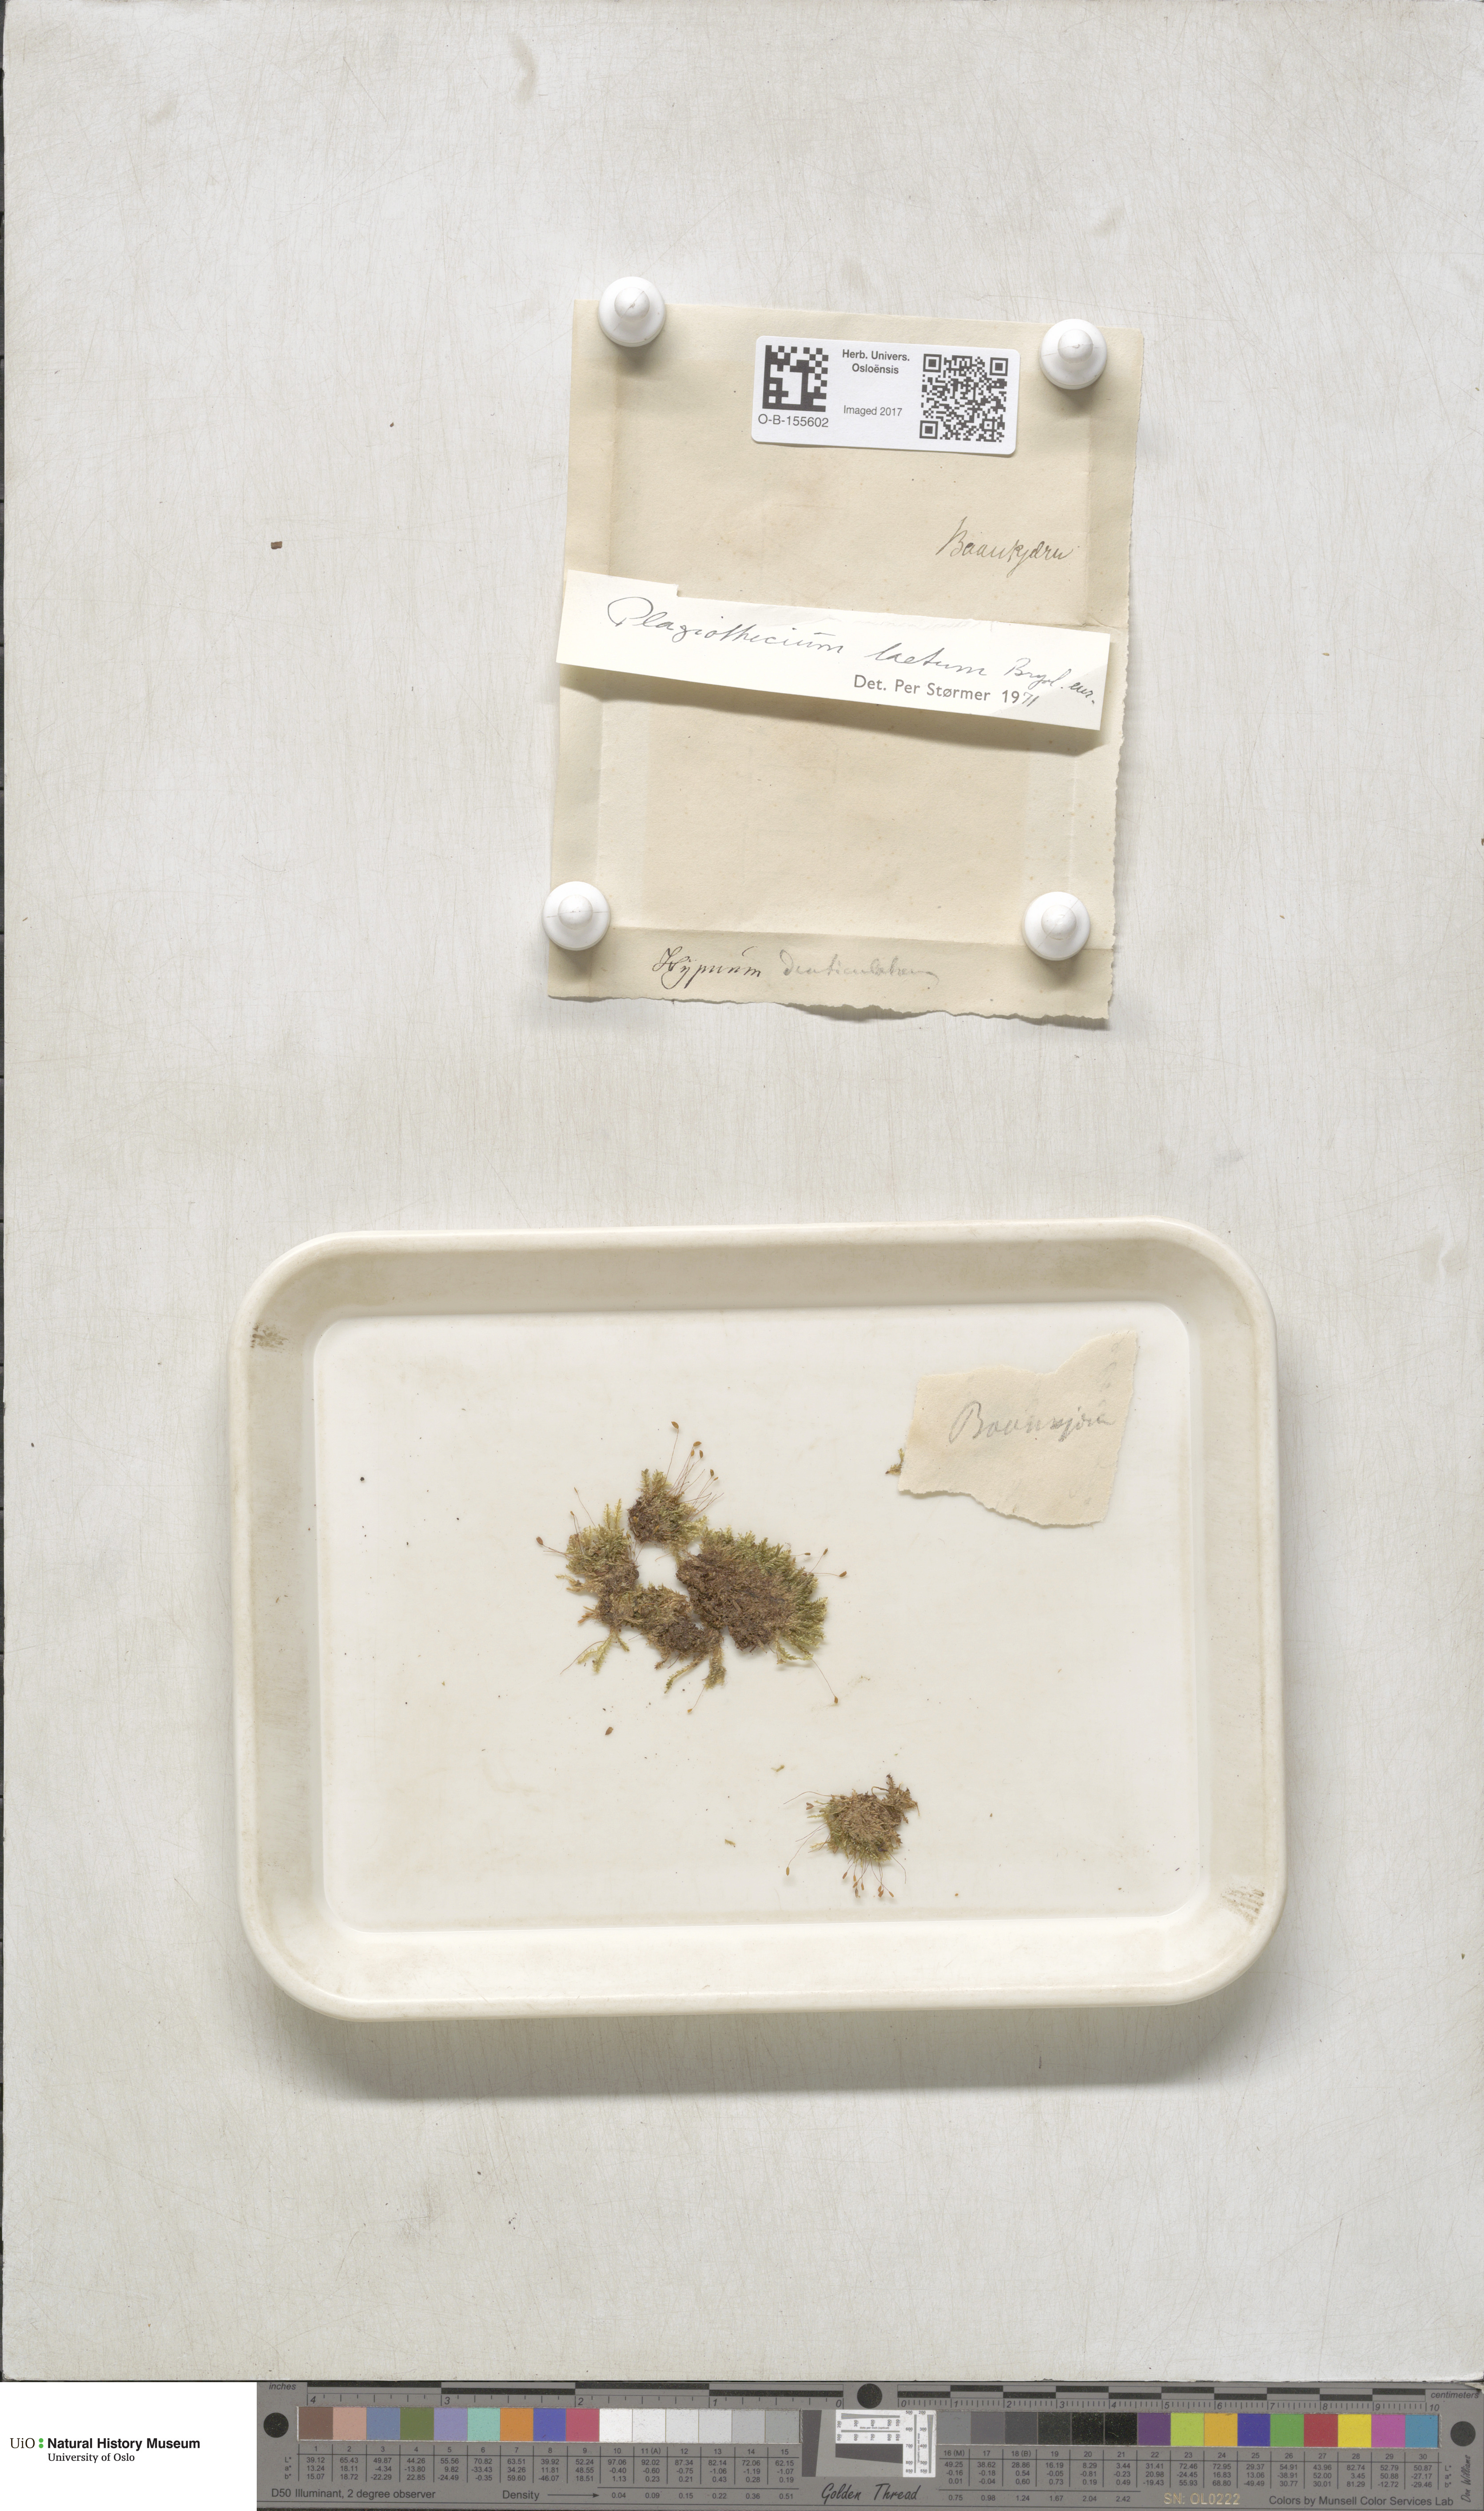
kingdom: Plantae
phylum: Bryophyta
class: Bryopsida
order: Hypnales
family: Plagiotheciaceae
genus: Plagiothecium
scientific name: Plagiothecium laetum
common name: Bright silk moss
